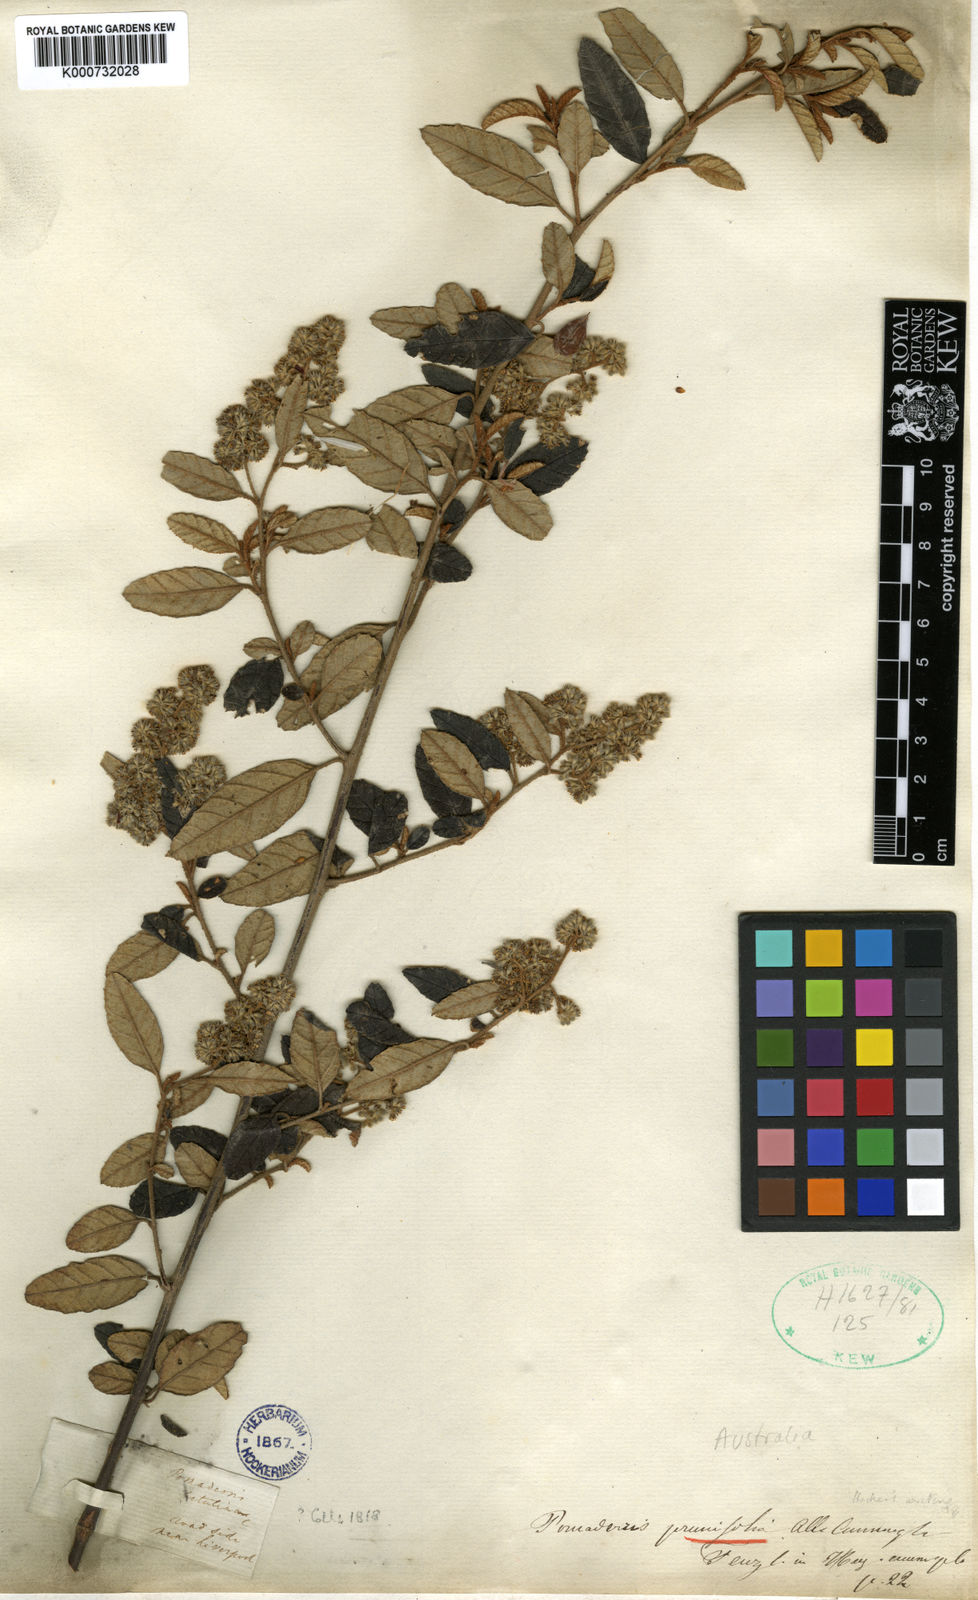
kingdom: Plantae
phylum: Tracheophyta
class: Magnoliopsida
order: Rosales
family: Rhamnaceae
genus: Pomaderris
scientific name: Pomaderris prunifolia
